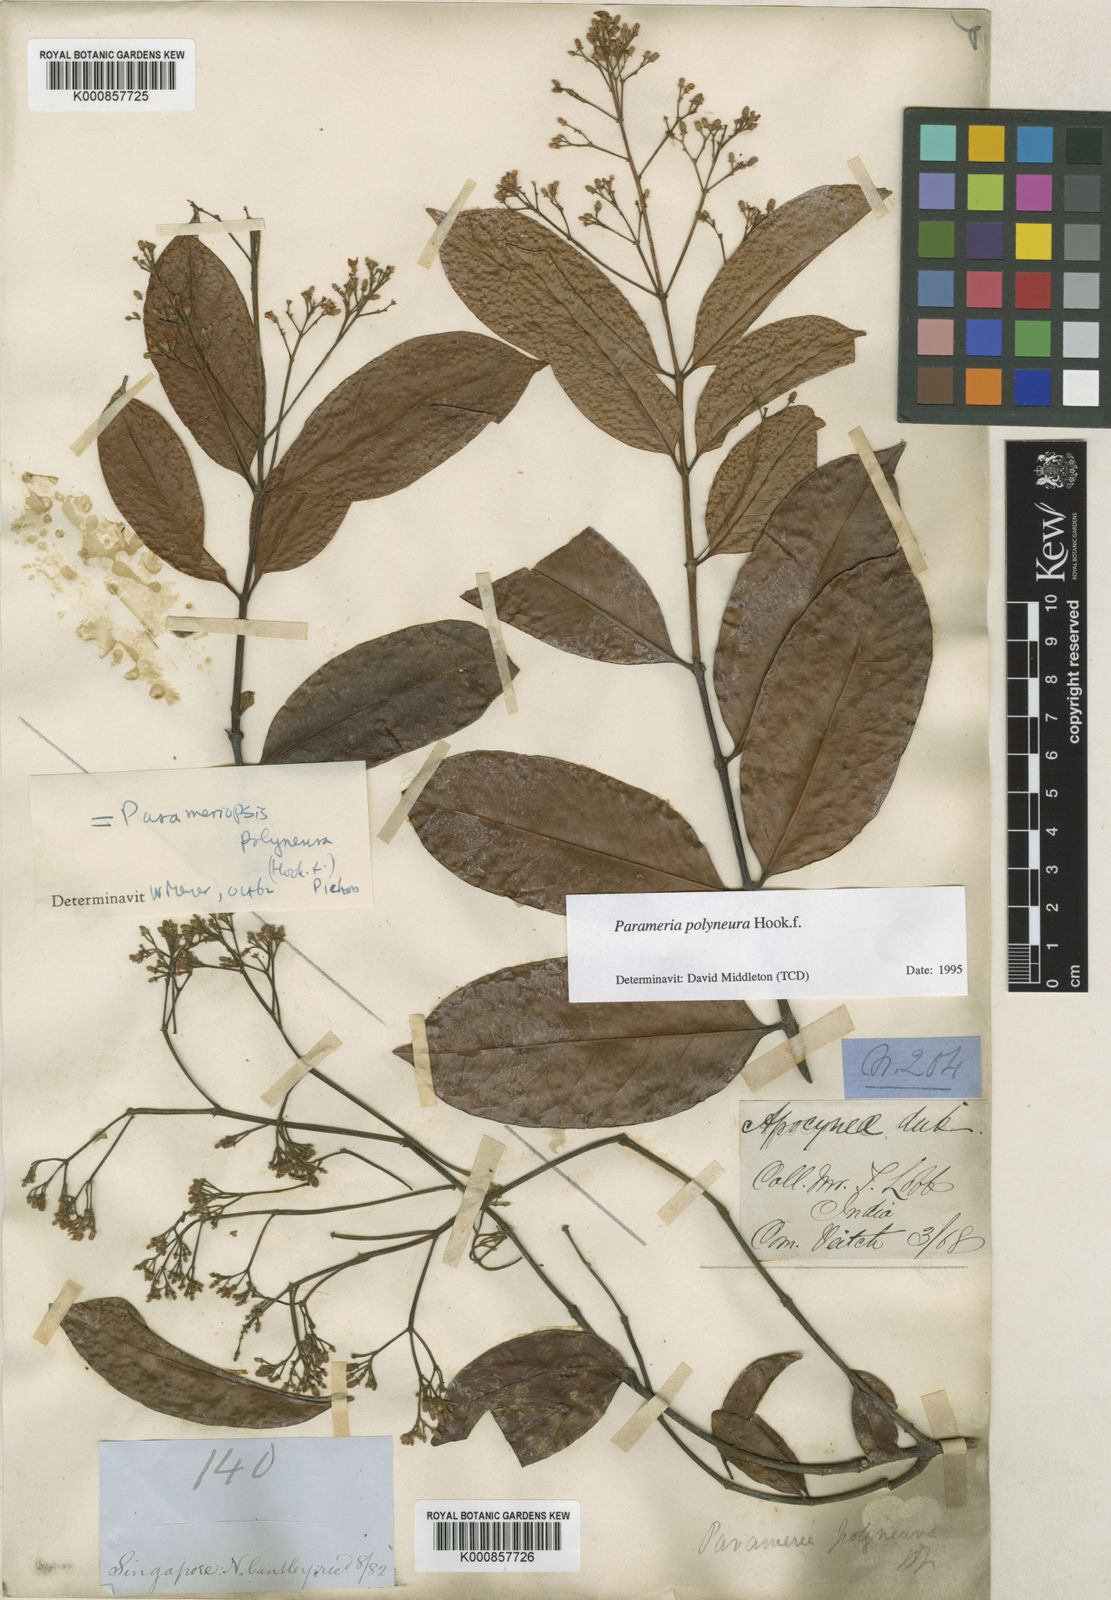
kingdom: Plantae
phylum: Tracheophyta
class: Magnoliopsida
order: Gentianales
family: Apocynaceae
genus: Urceola
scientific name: Urceola polyneura
